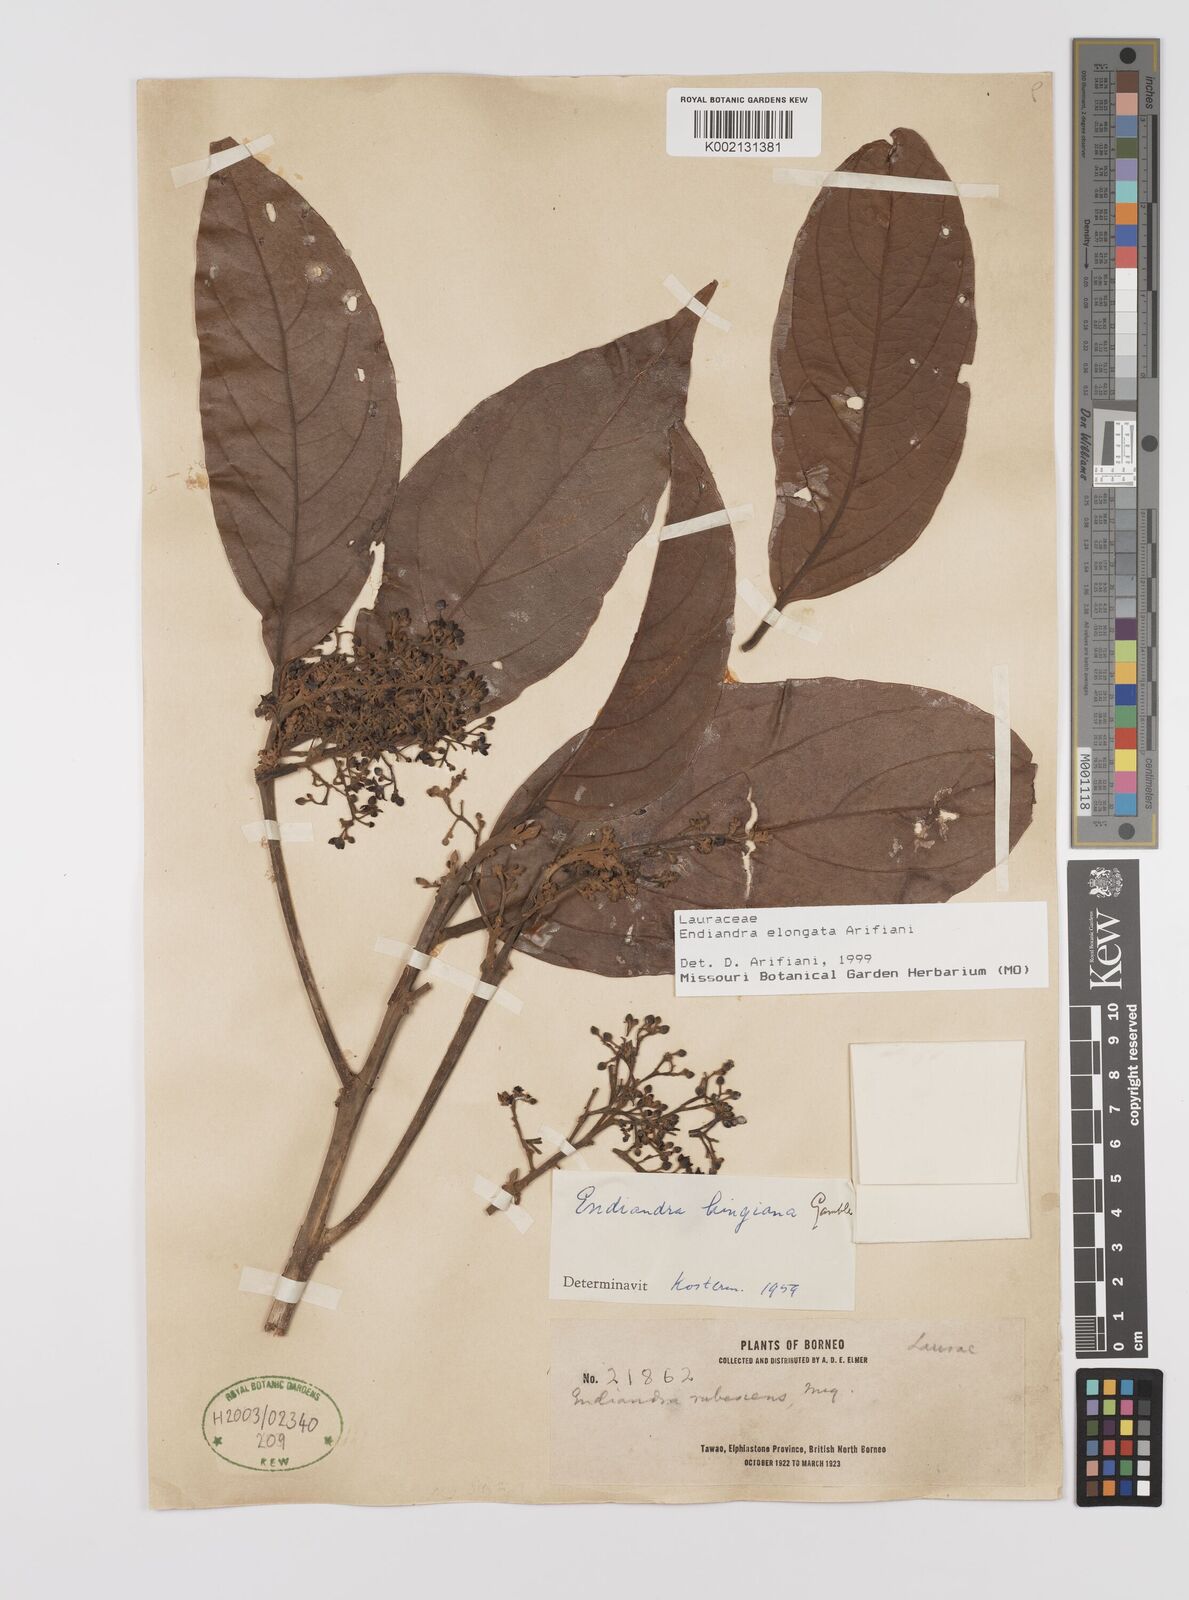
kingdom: Plantae
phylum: Tracheophyta
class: Magnoliopsida
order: Laurales
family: Lauraceae
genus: Endiandra
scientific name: Endiandra elongata
